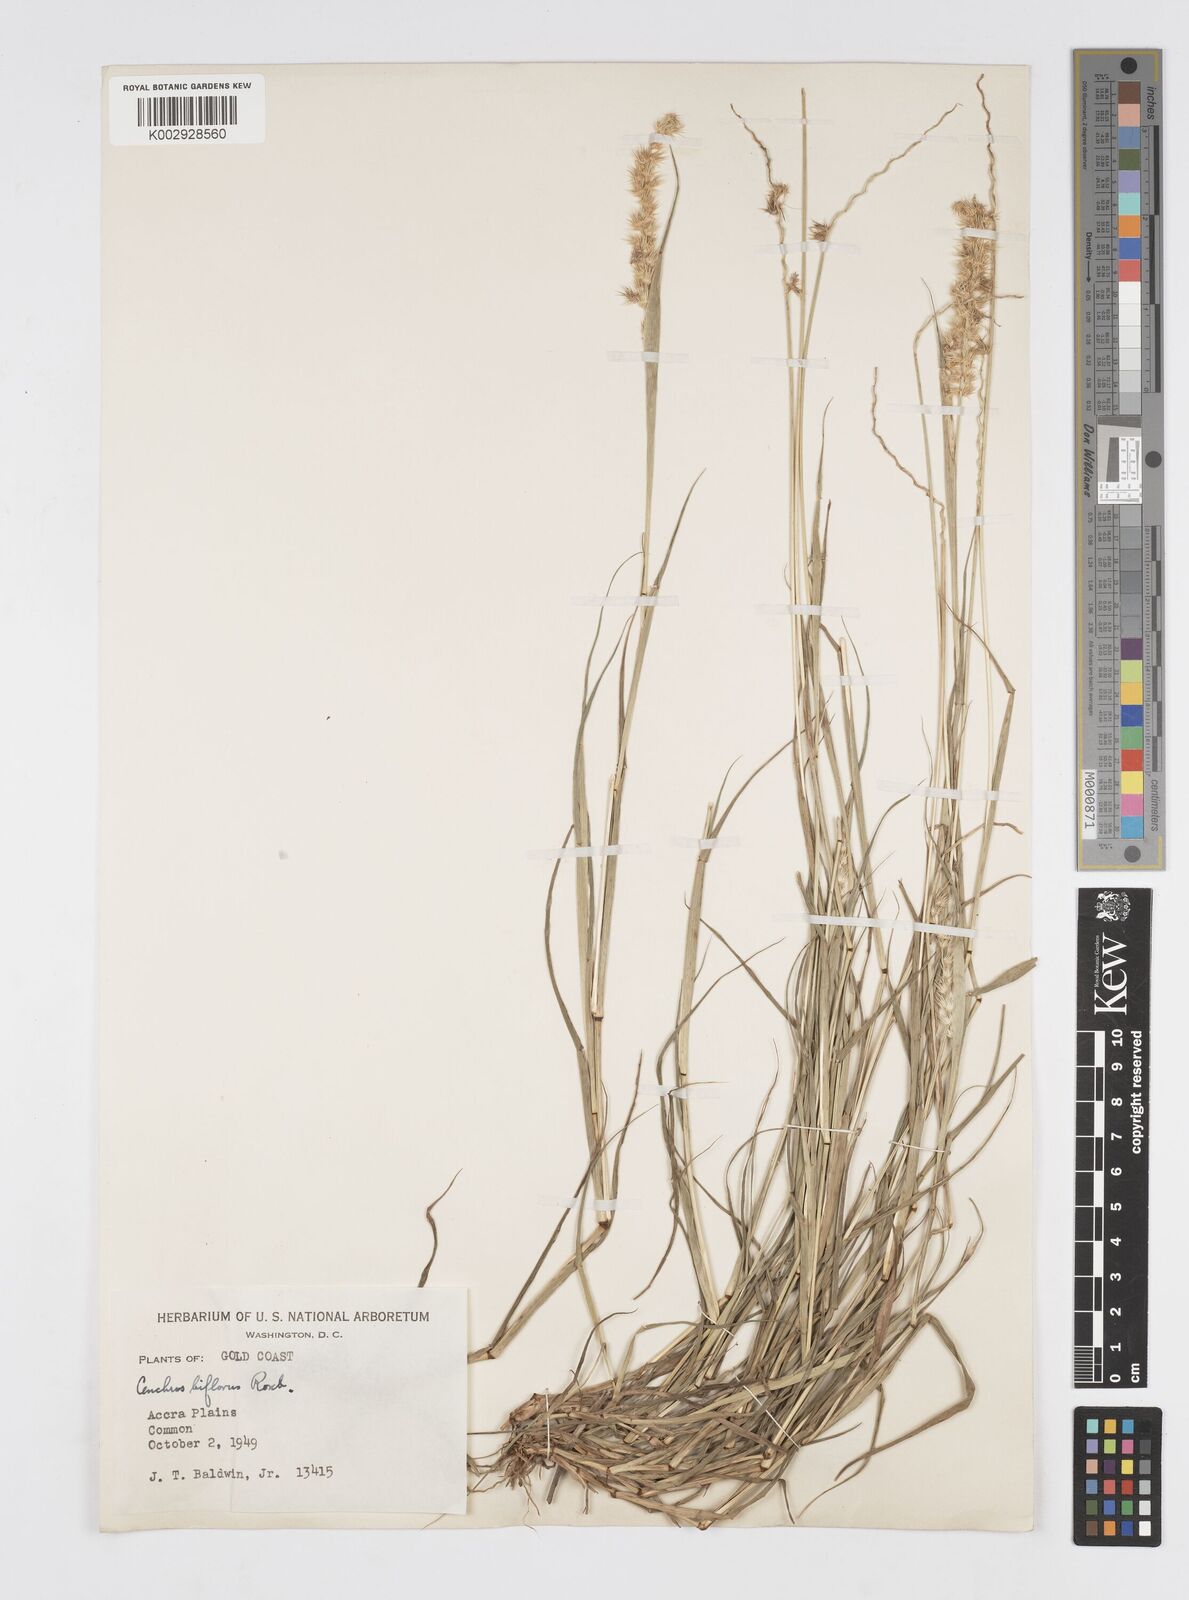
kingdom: Plantae
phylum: Tracheophyta
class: Liliopsida
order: Poales
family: Poaceae
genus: Cenchrus
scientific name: Cenchrus biflorus
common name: Indian sandbur
